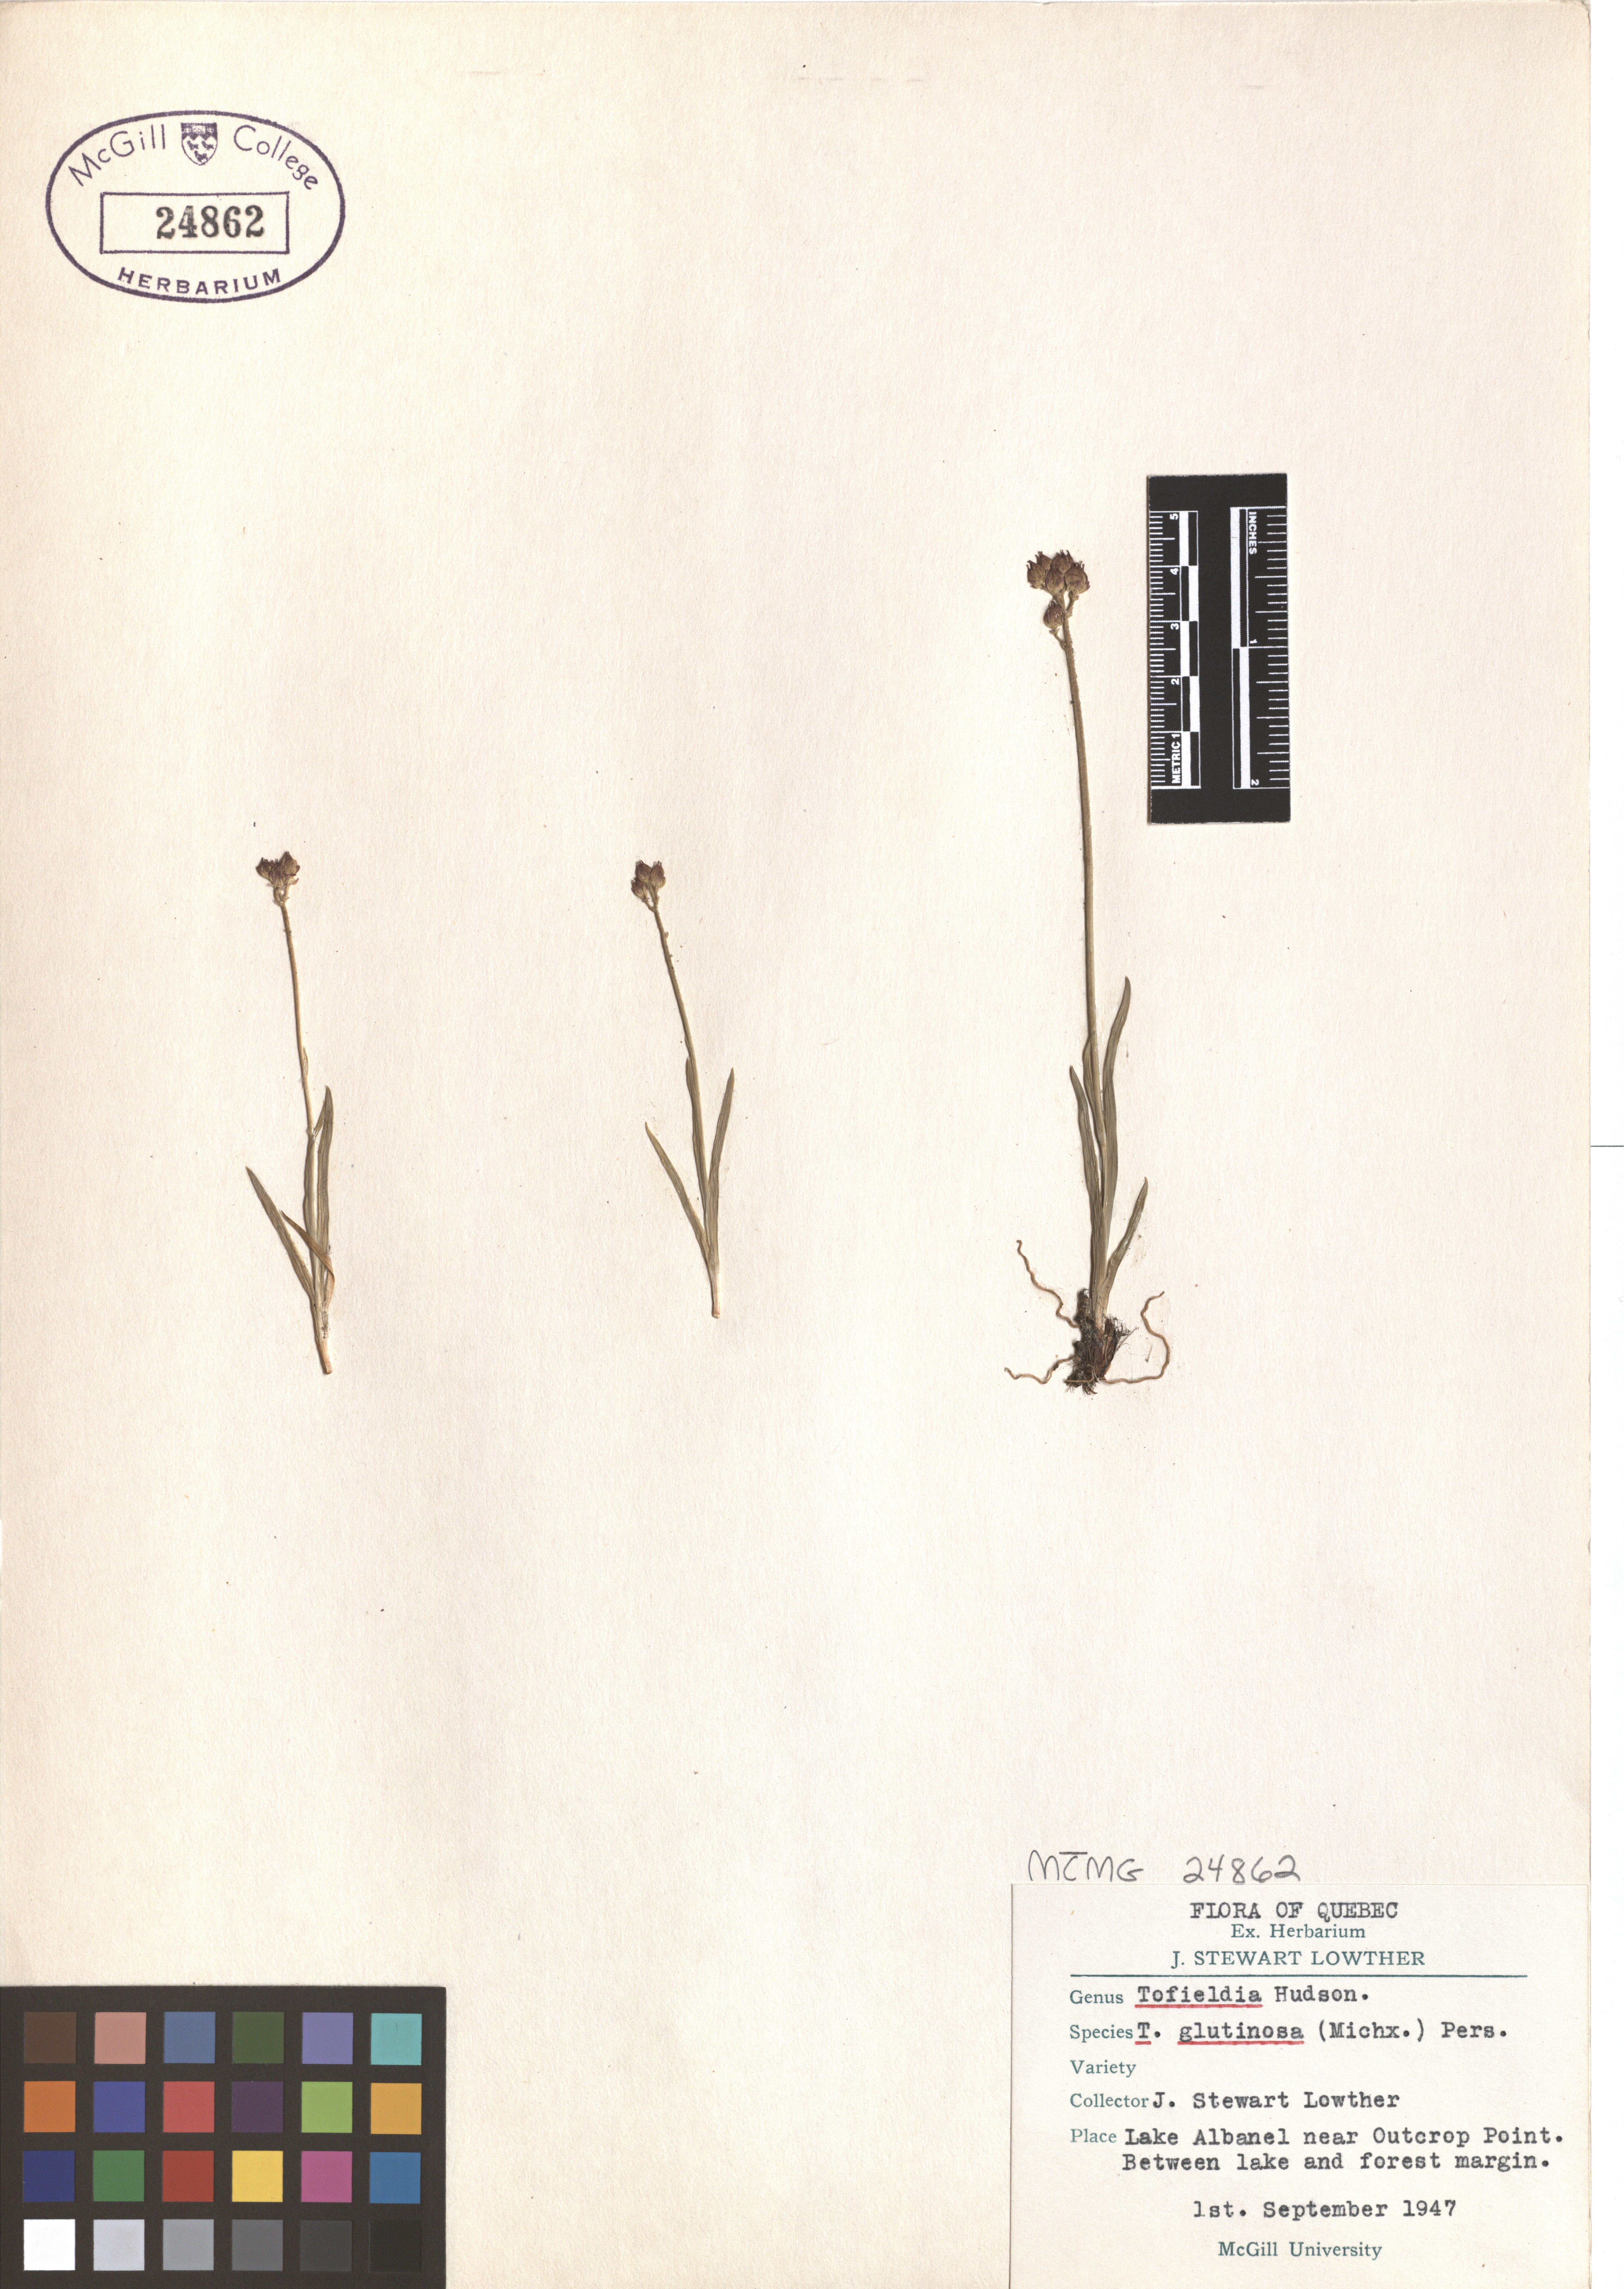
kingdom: Plantae
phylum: Tracheophyta
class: Liliopsida
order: Alismatales
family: Tofieldiaceae
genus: Triantha
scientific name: Triantha glutinosa
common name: Glutinous tofieldia
